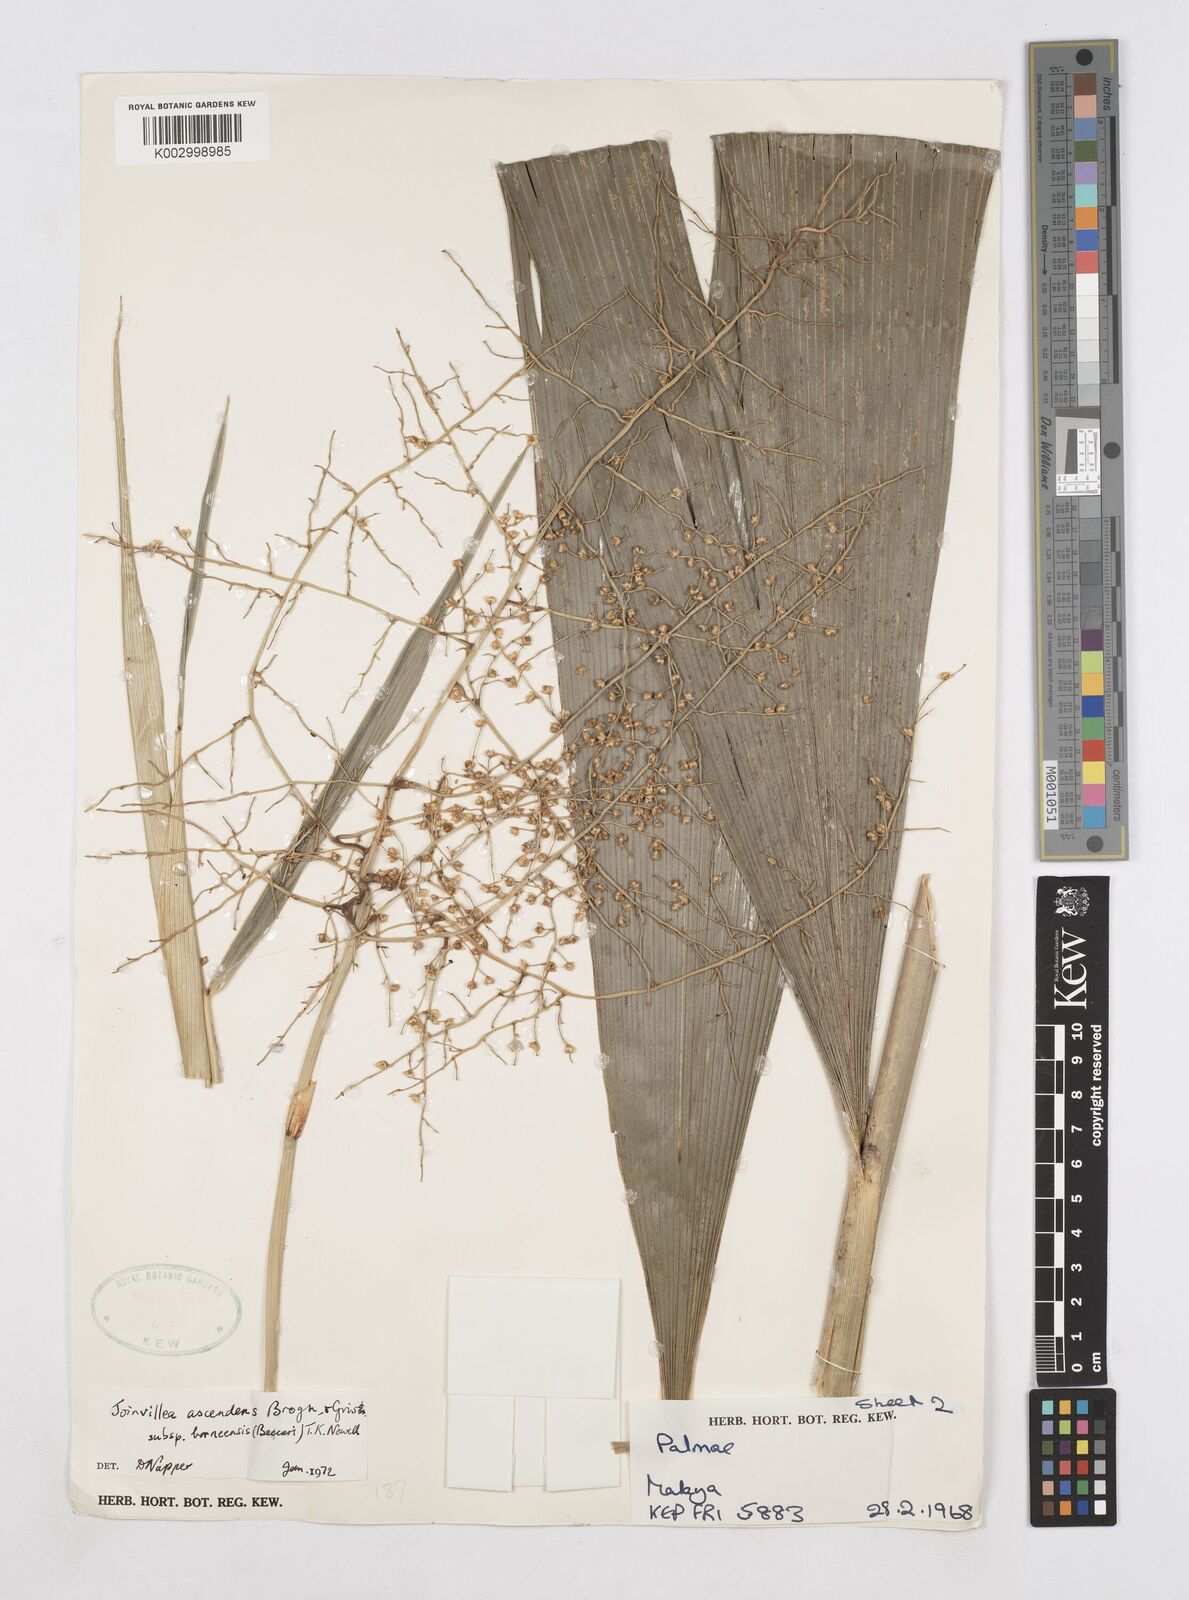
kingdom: Plantae
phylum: Tracheophyta
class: Liliopsida
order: Poales
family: Joinvilleaceae
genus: Joinvillea
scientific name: Joinvillea borneensis
